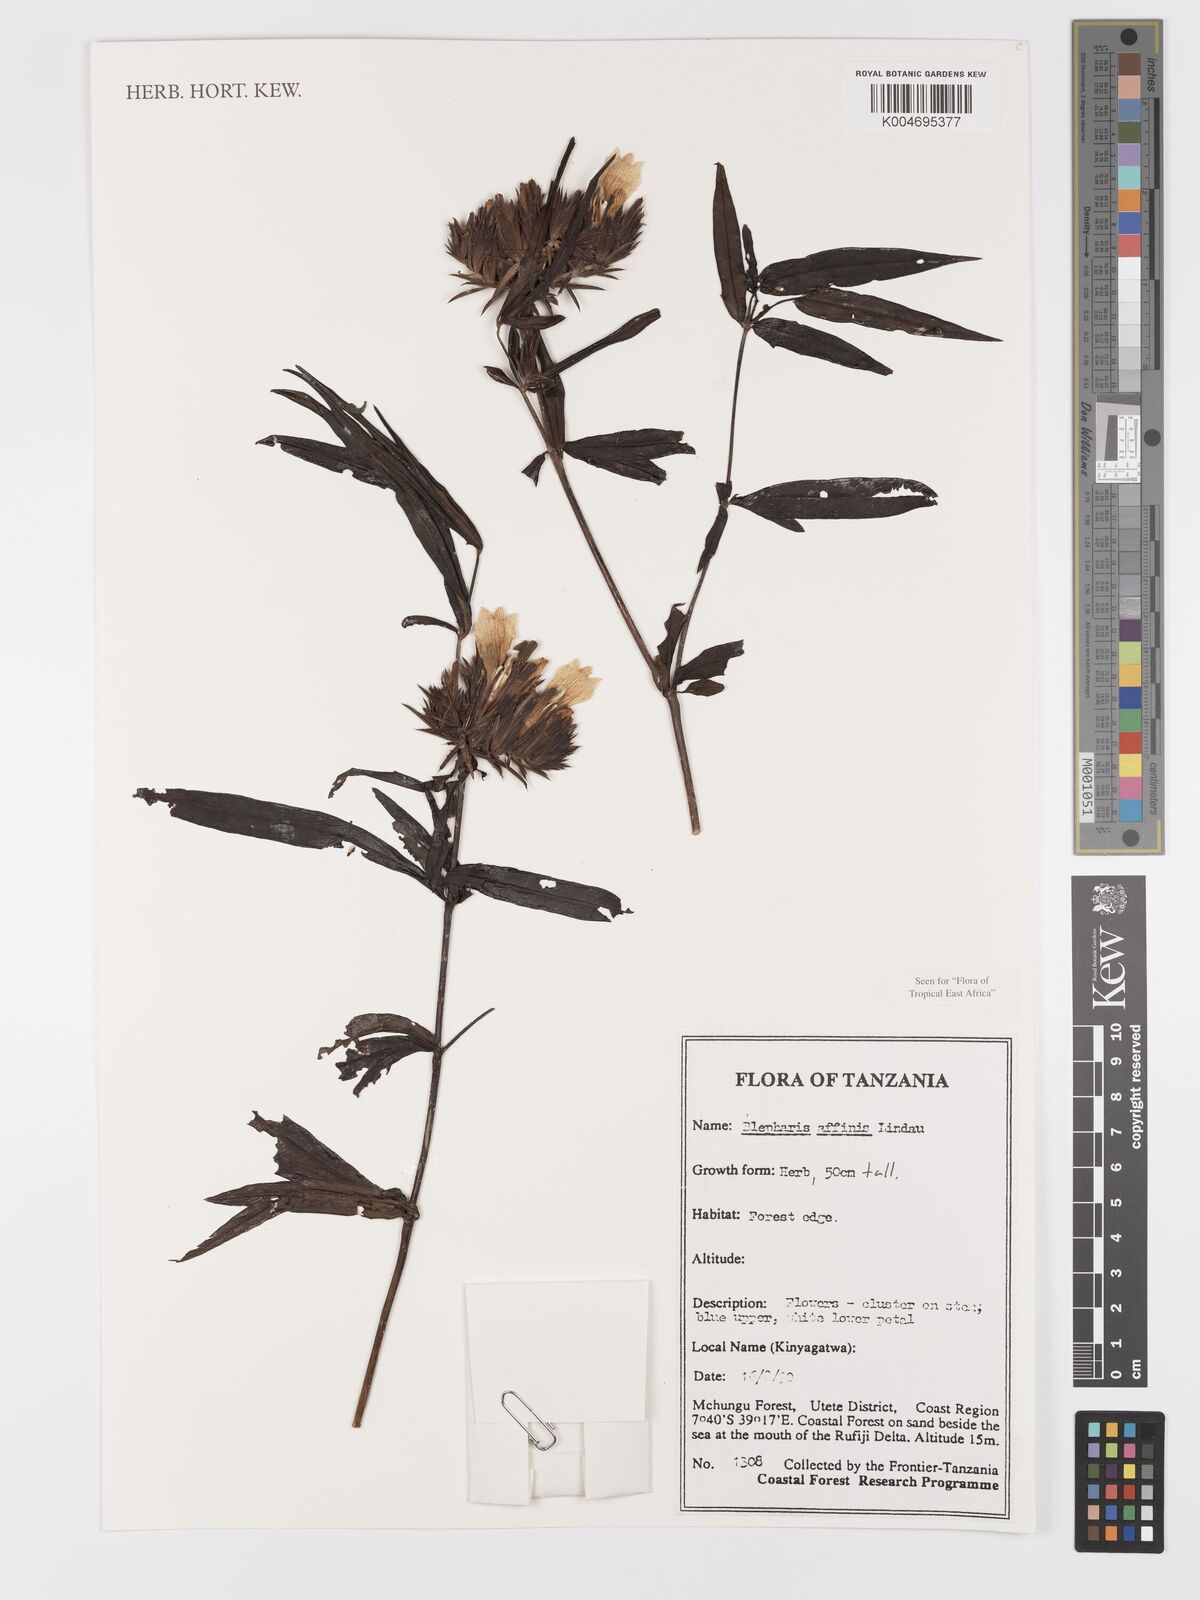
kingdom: Plantae
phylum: Tracheophyta
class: Magnoliopsida
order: Lamiales
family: Acanthaceae
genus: Blepharis
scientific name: Blepharis affinis
